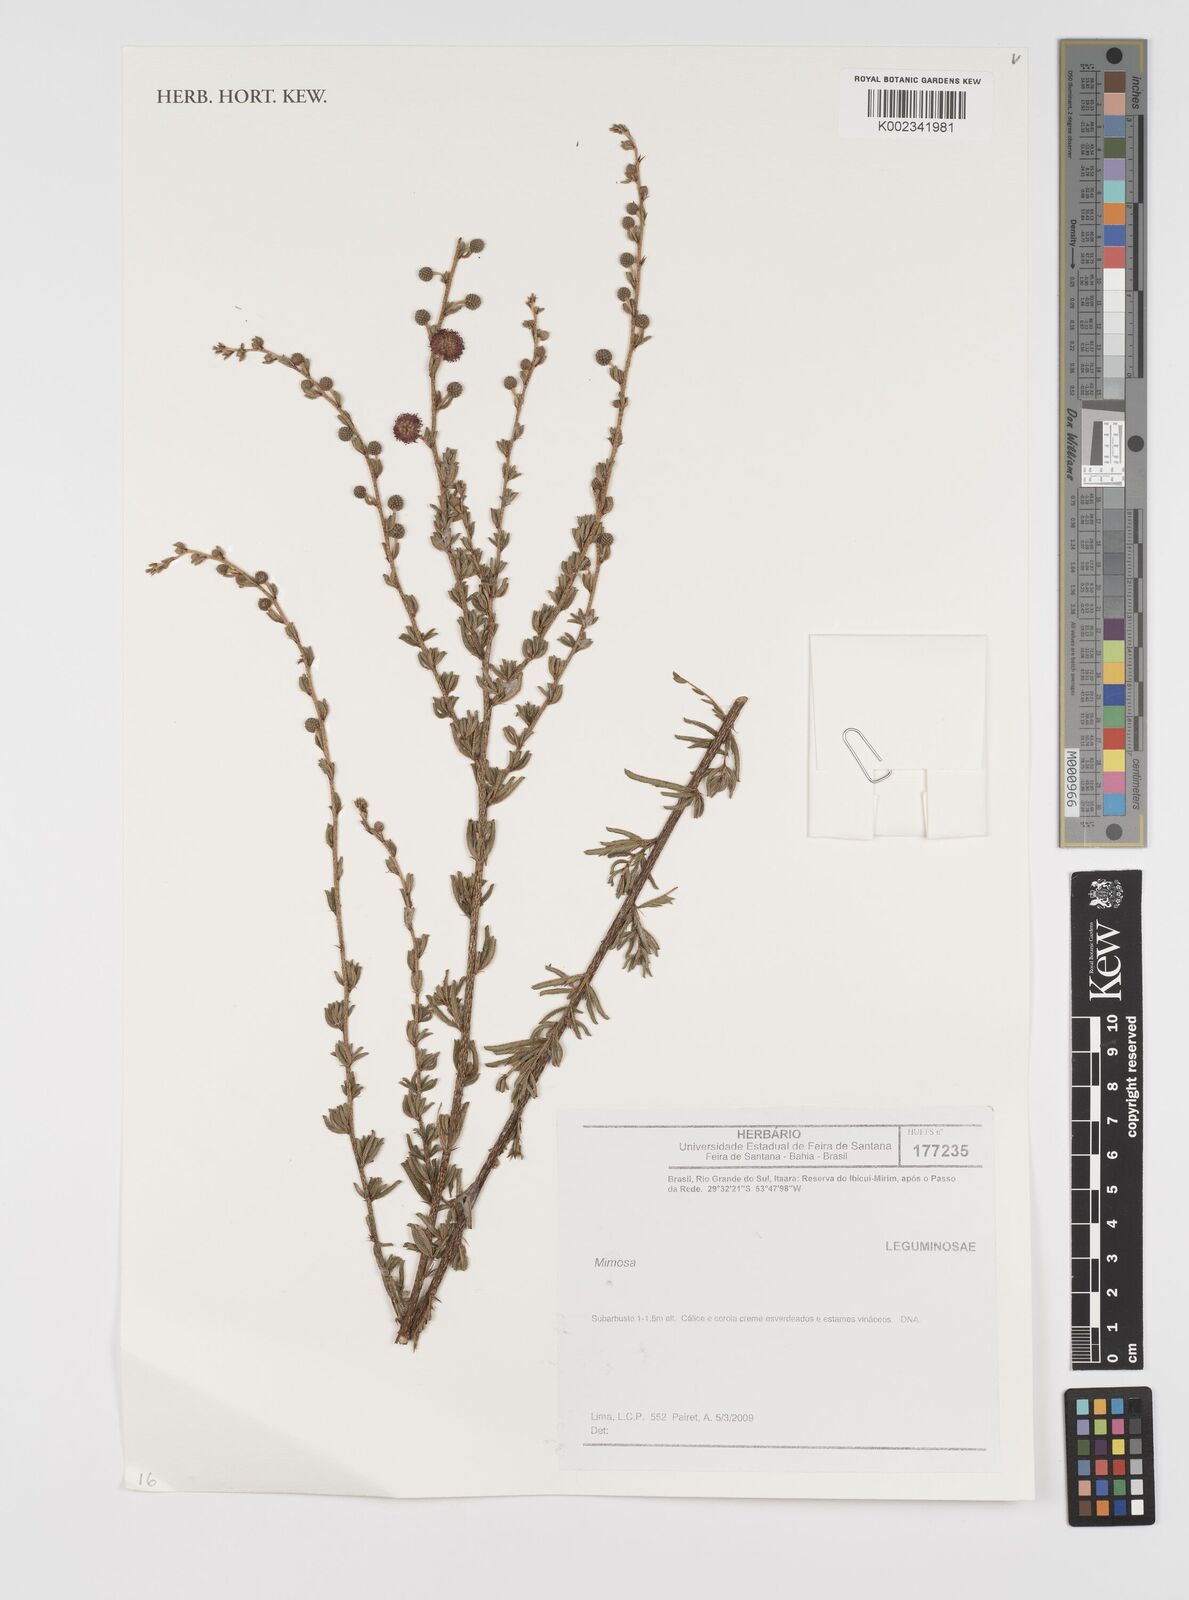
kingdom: Plantae
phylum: Tracheophyta
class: Magnoliopsida
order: Fabales
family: Fabaceae
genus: Mimosa
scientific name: Mimosa
